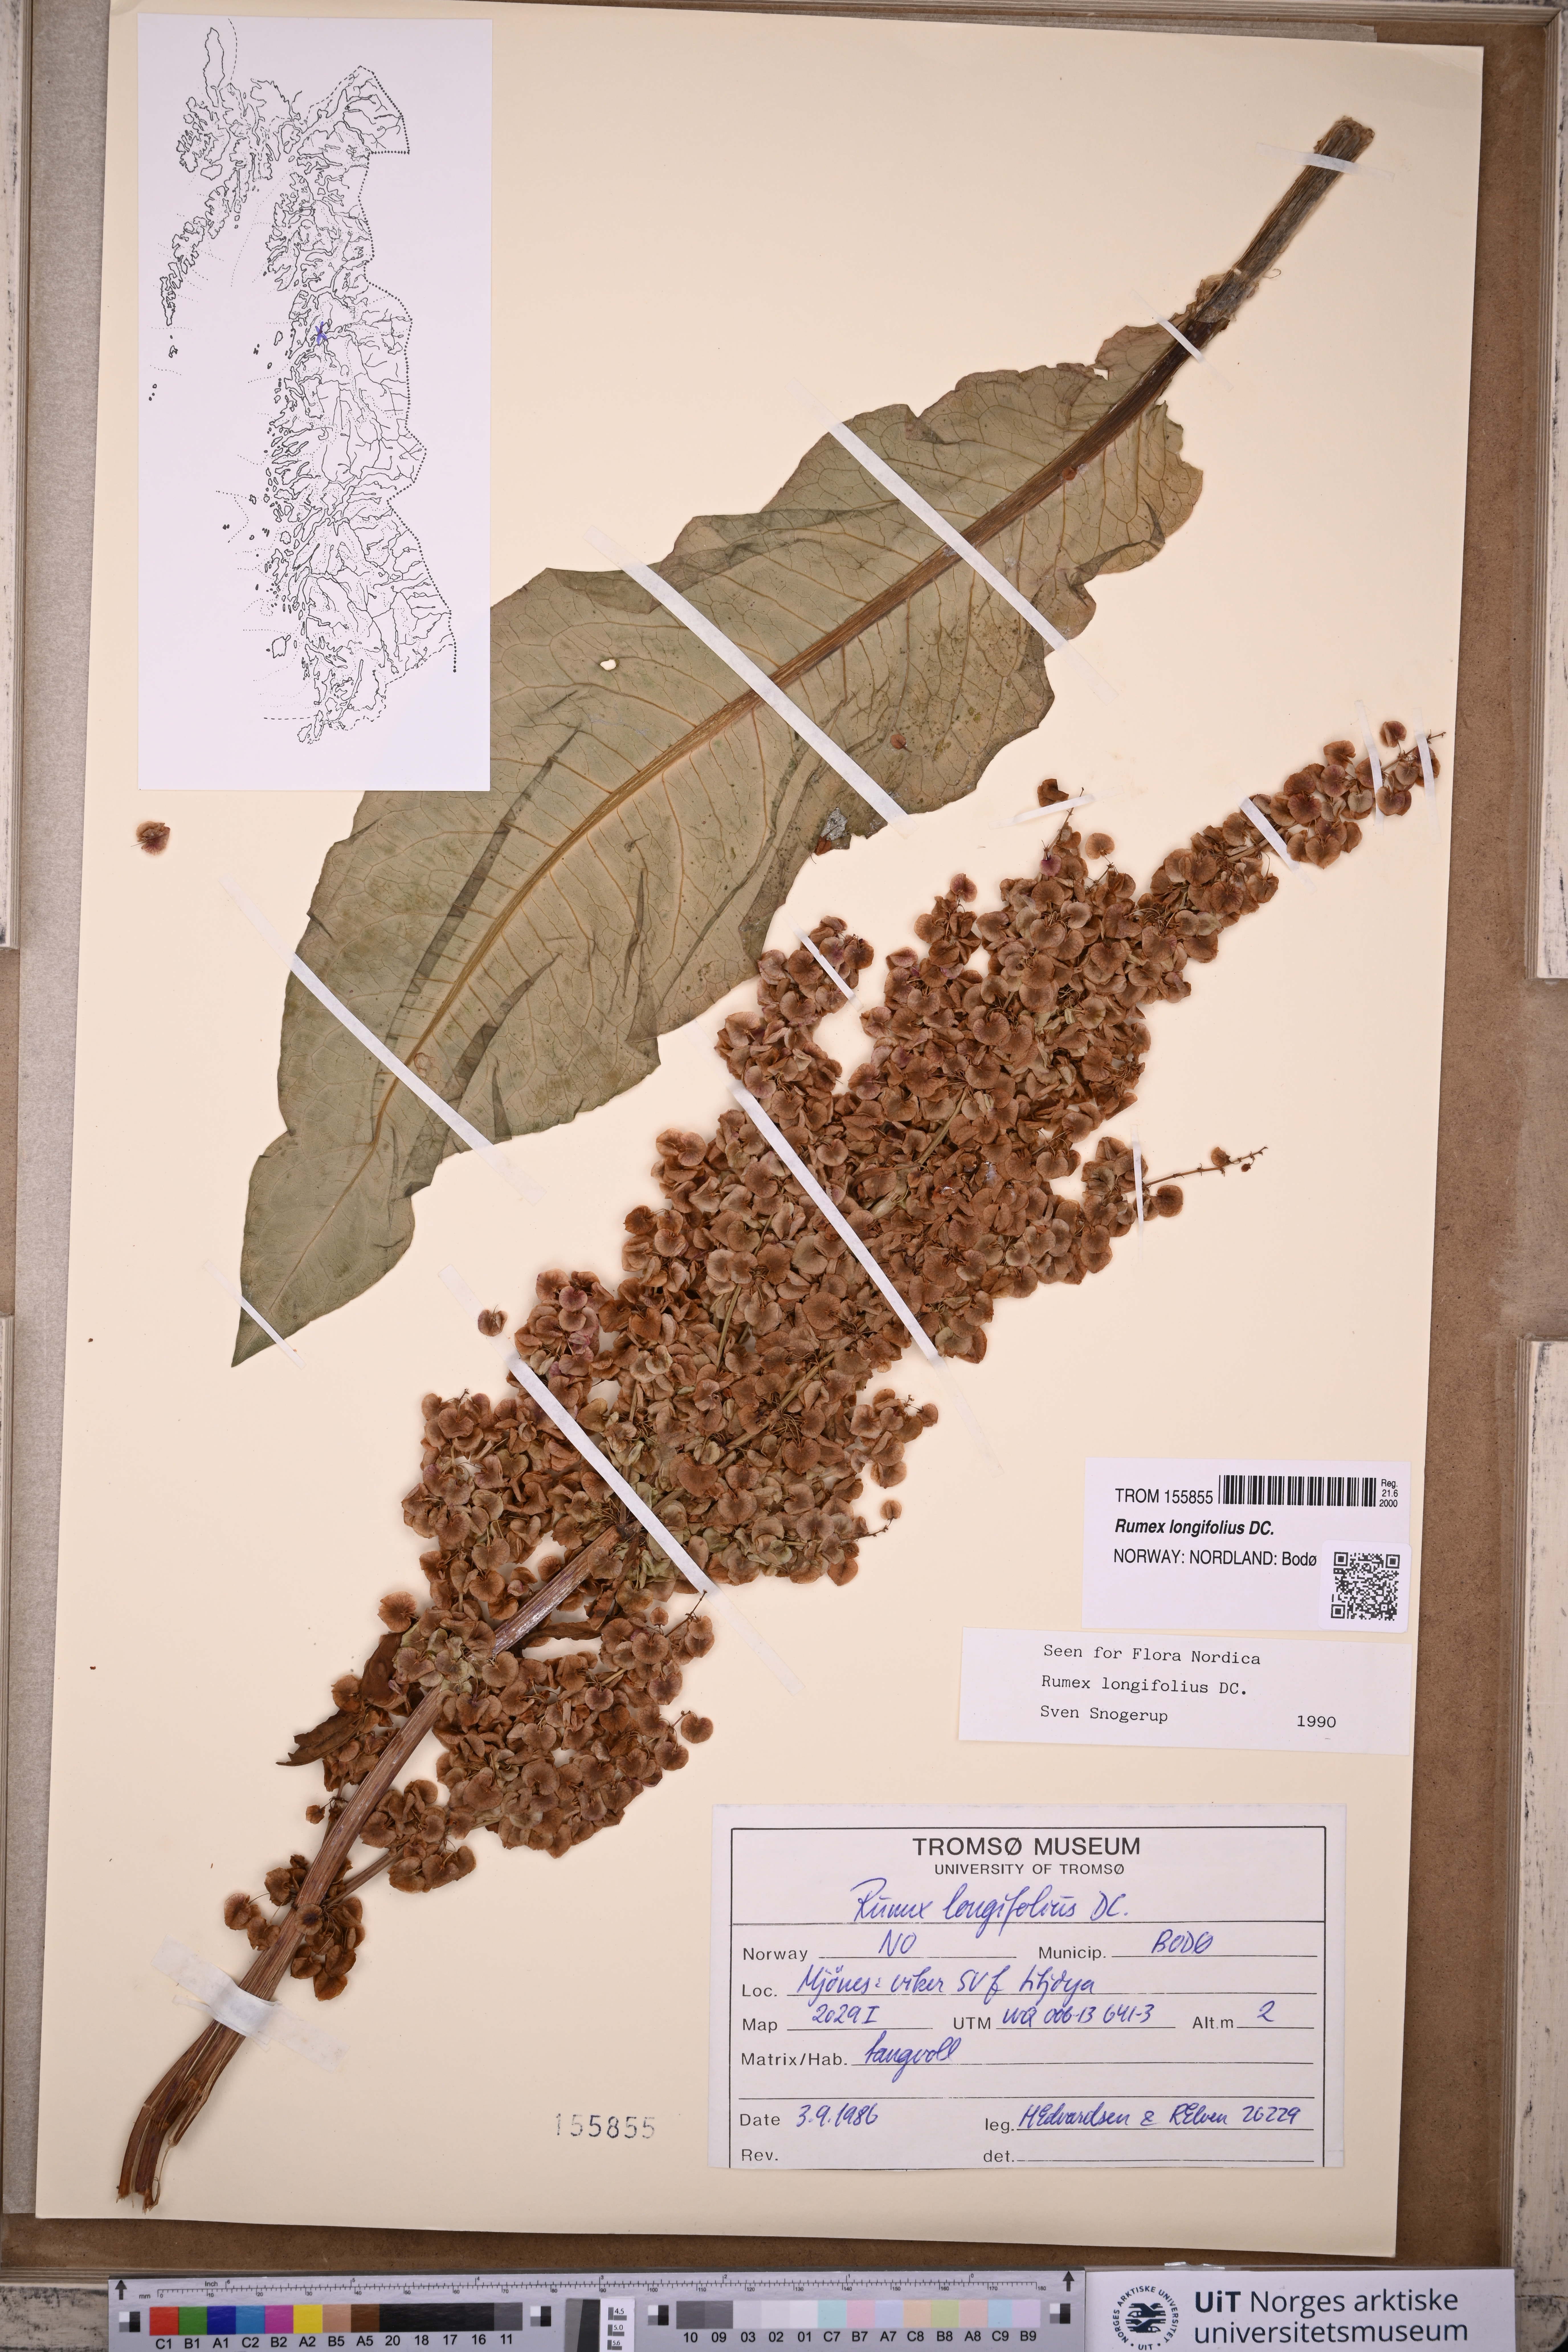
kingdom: Plantae
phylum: Tracheophyta
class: Magnoliopsida
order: Caryophyllales
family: Polygonaceae
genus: Rumex
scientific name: Rumex longifolius
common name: Dooryard dock
